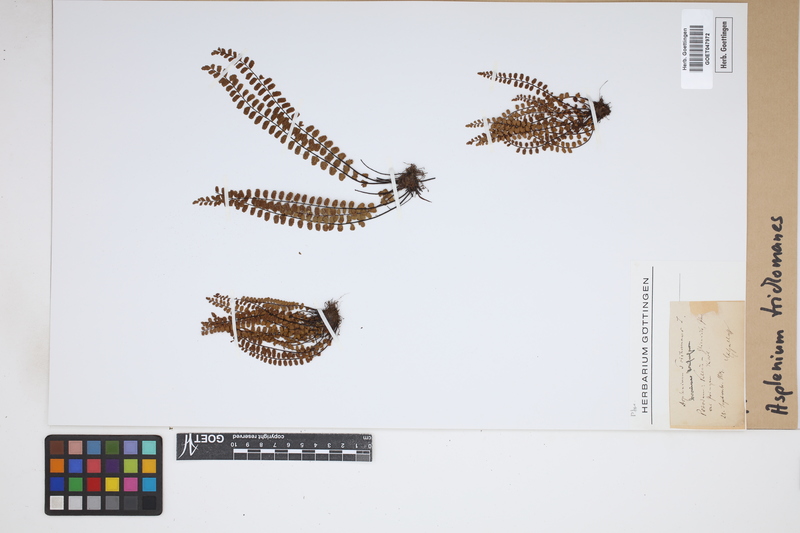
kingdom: Plantae
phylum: Tracheophyta
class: Polypodiopsida
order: Polypodiales
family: Aspleniaceae
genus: Asplenium
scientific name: Asplenium trichomanes
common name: Maidenhair spleenwort
